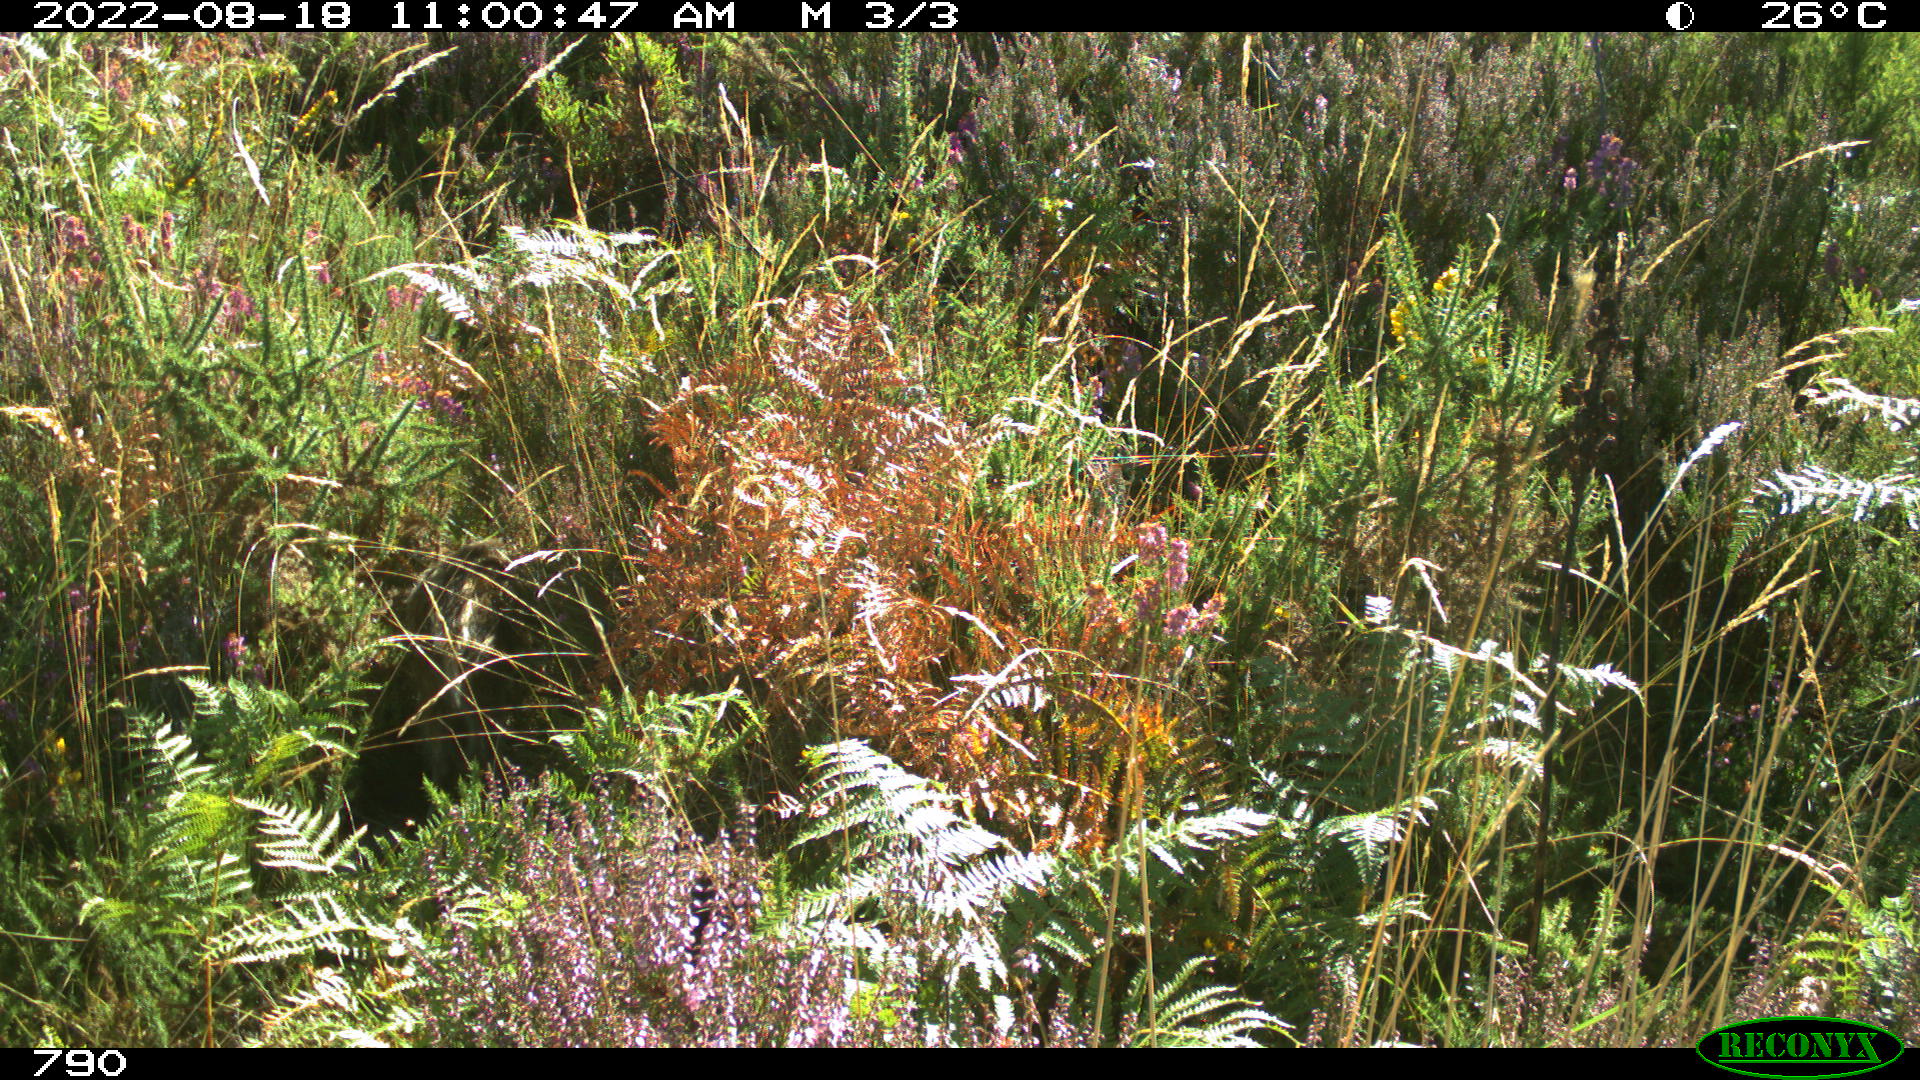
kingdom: Animalia
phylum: Chordata
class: Mammalia
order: Artiodactyla
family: Suidae
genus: Sus
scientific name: Sus scrofa
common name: Wild boar
